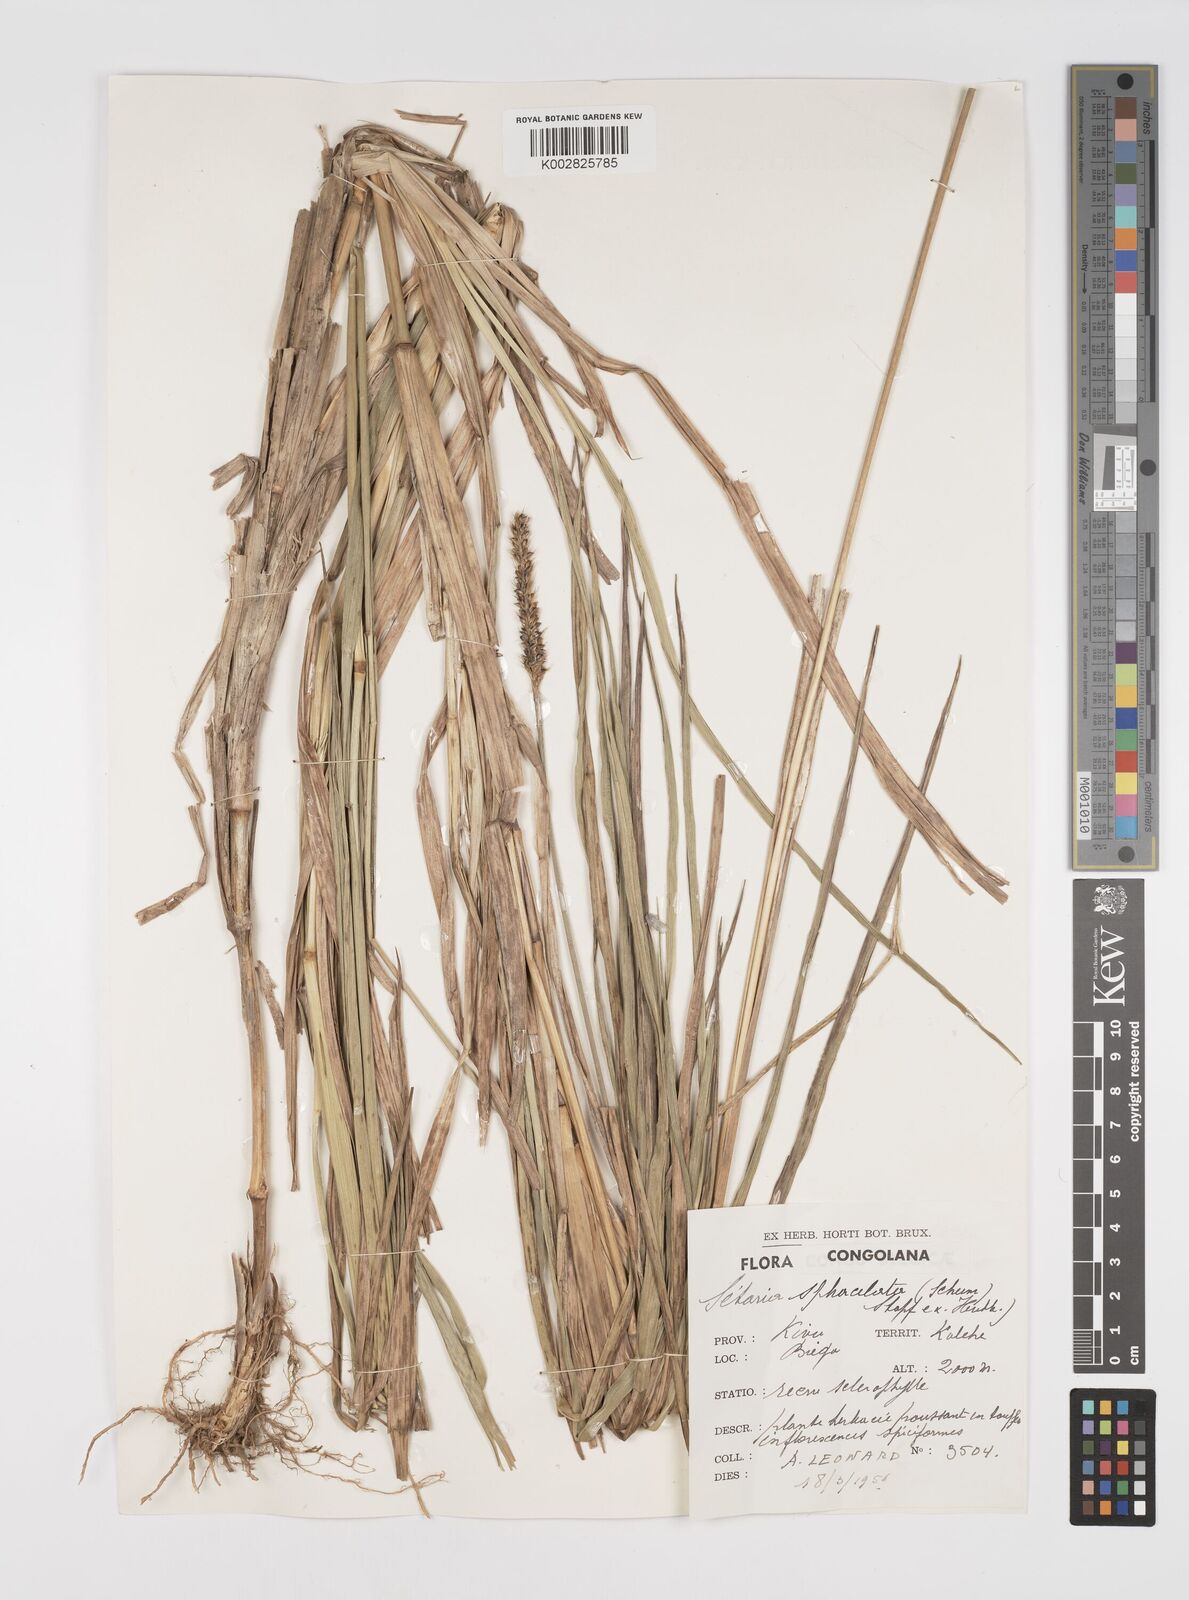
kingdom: Plantae
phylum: Tracheophyta
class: Liliopsida
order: Poales
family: Poaceae
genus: Setaria
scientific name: Setaria sphacelata
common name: African bristlegrass
